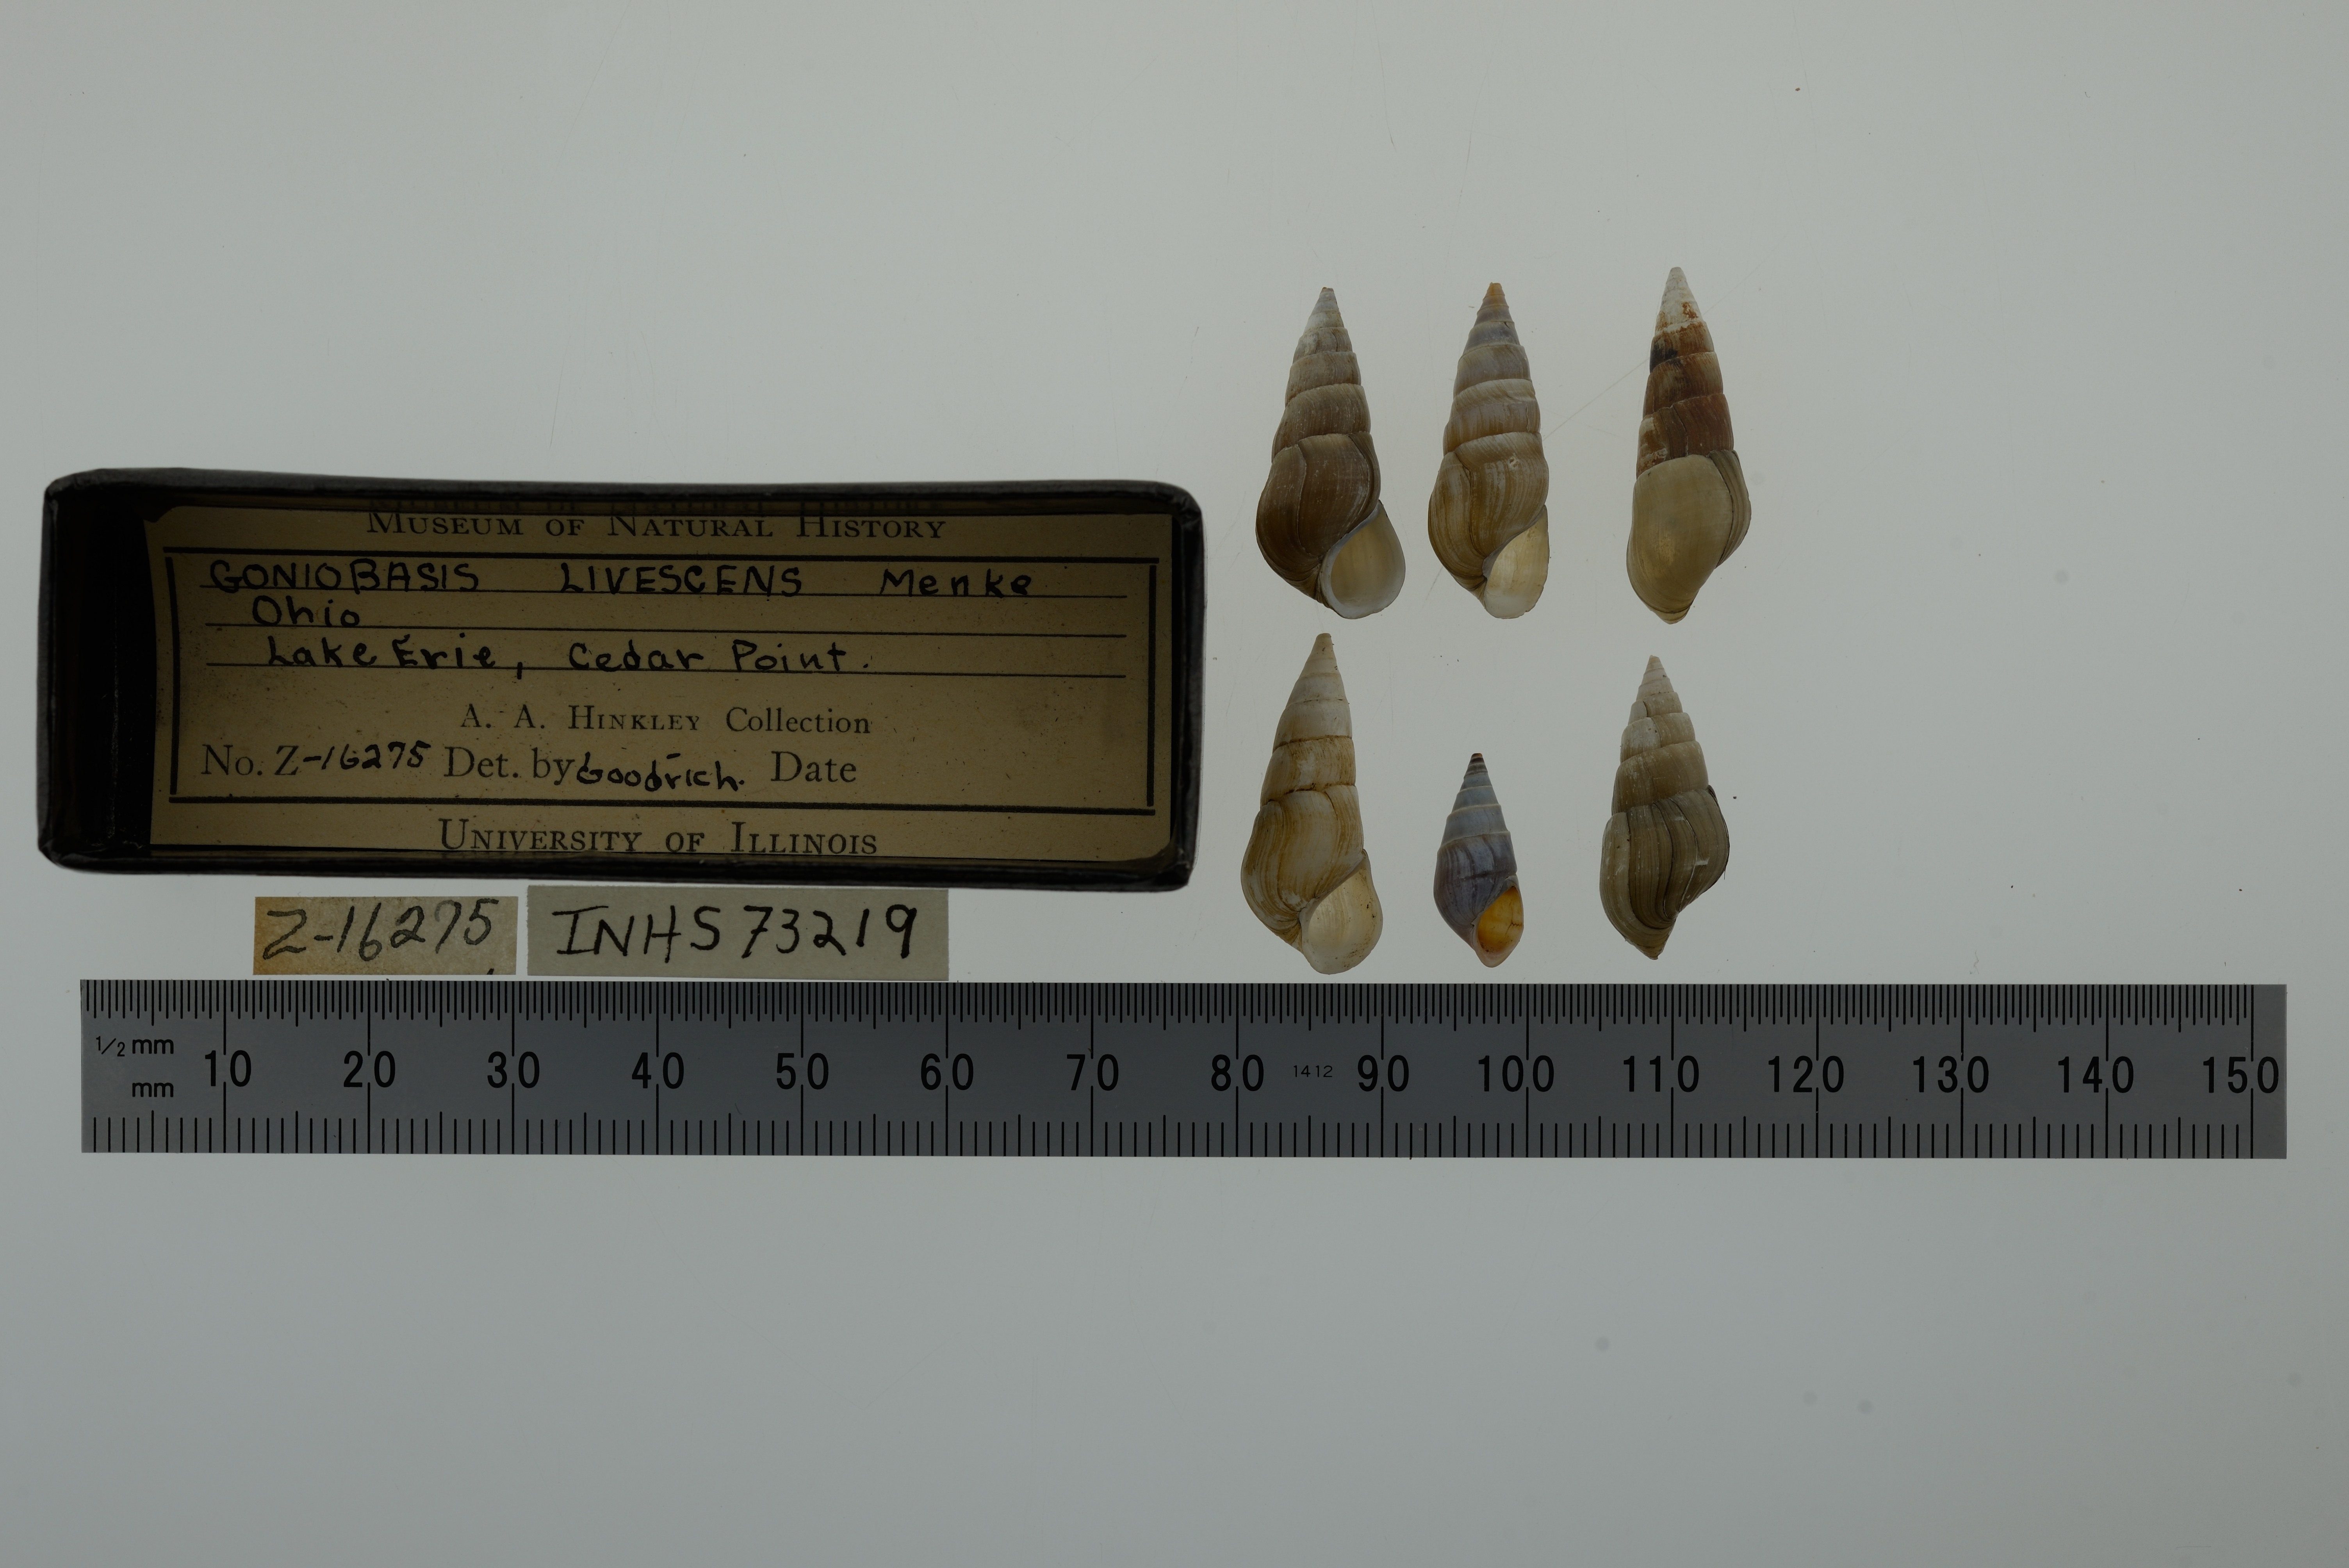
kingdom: Animalia
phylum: Mollusca
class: Gastropoda
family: Pleuroceridae
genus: Elimia
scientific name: Elimia livescens
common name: Liver elimia
